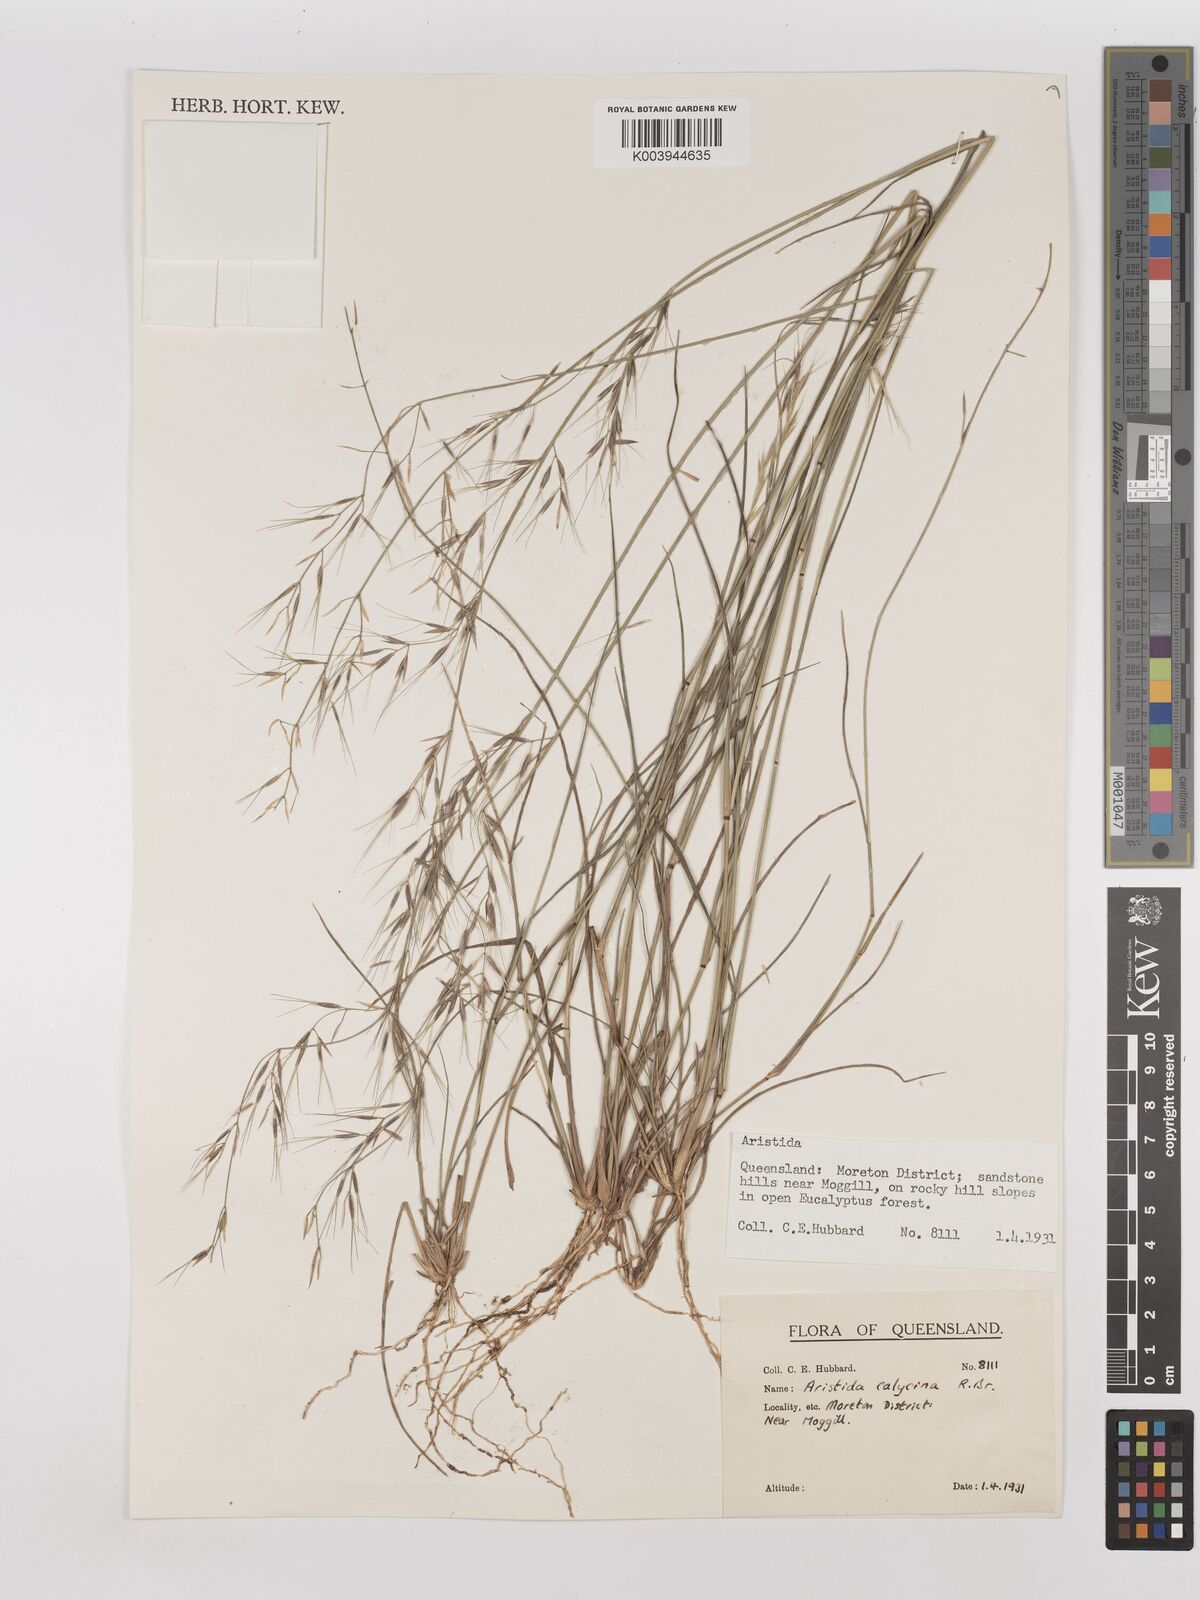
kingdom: Plantae
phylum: Tracheophyta
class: Liliopsida
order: Poales
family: Poaceae
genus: Aristida
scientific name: Aristida calycina
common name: Dark wire grass
